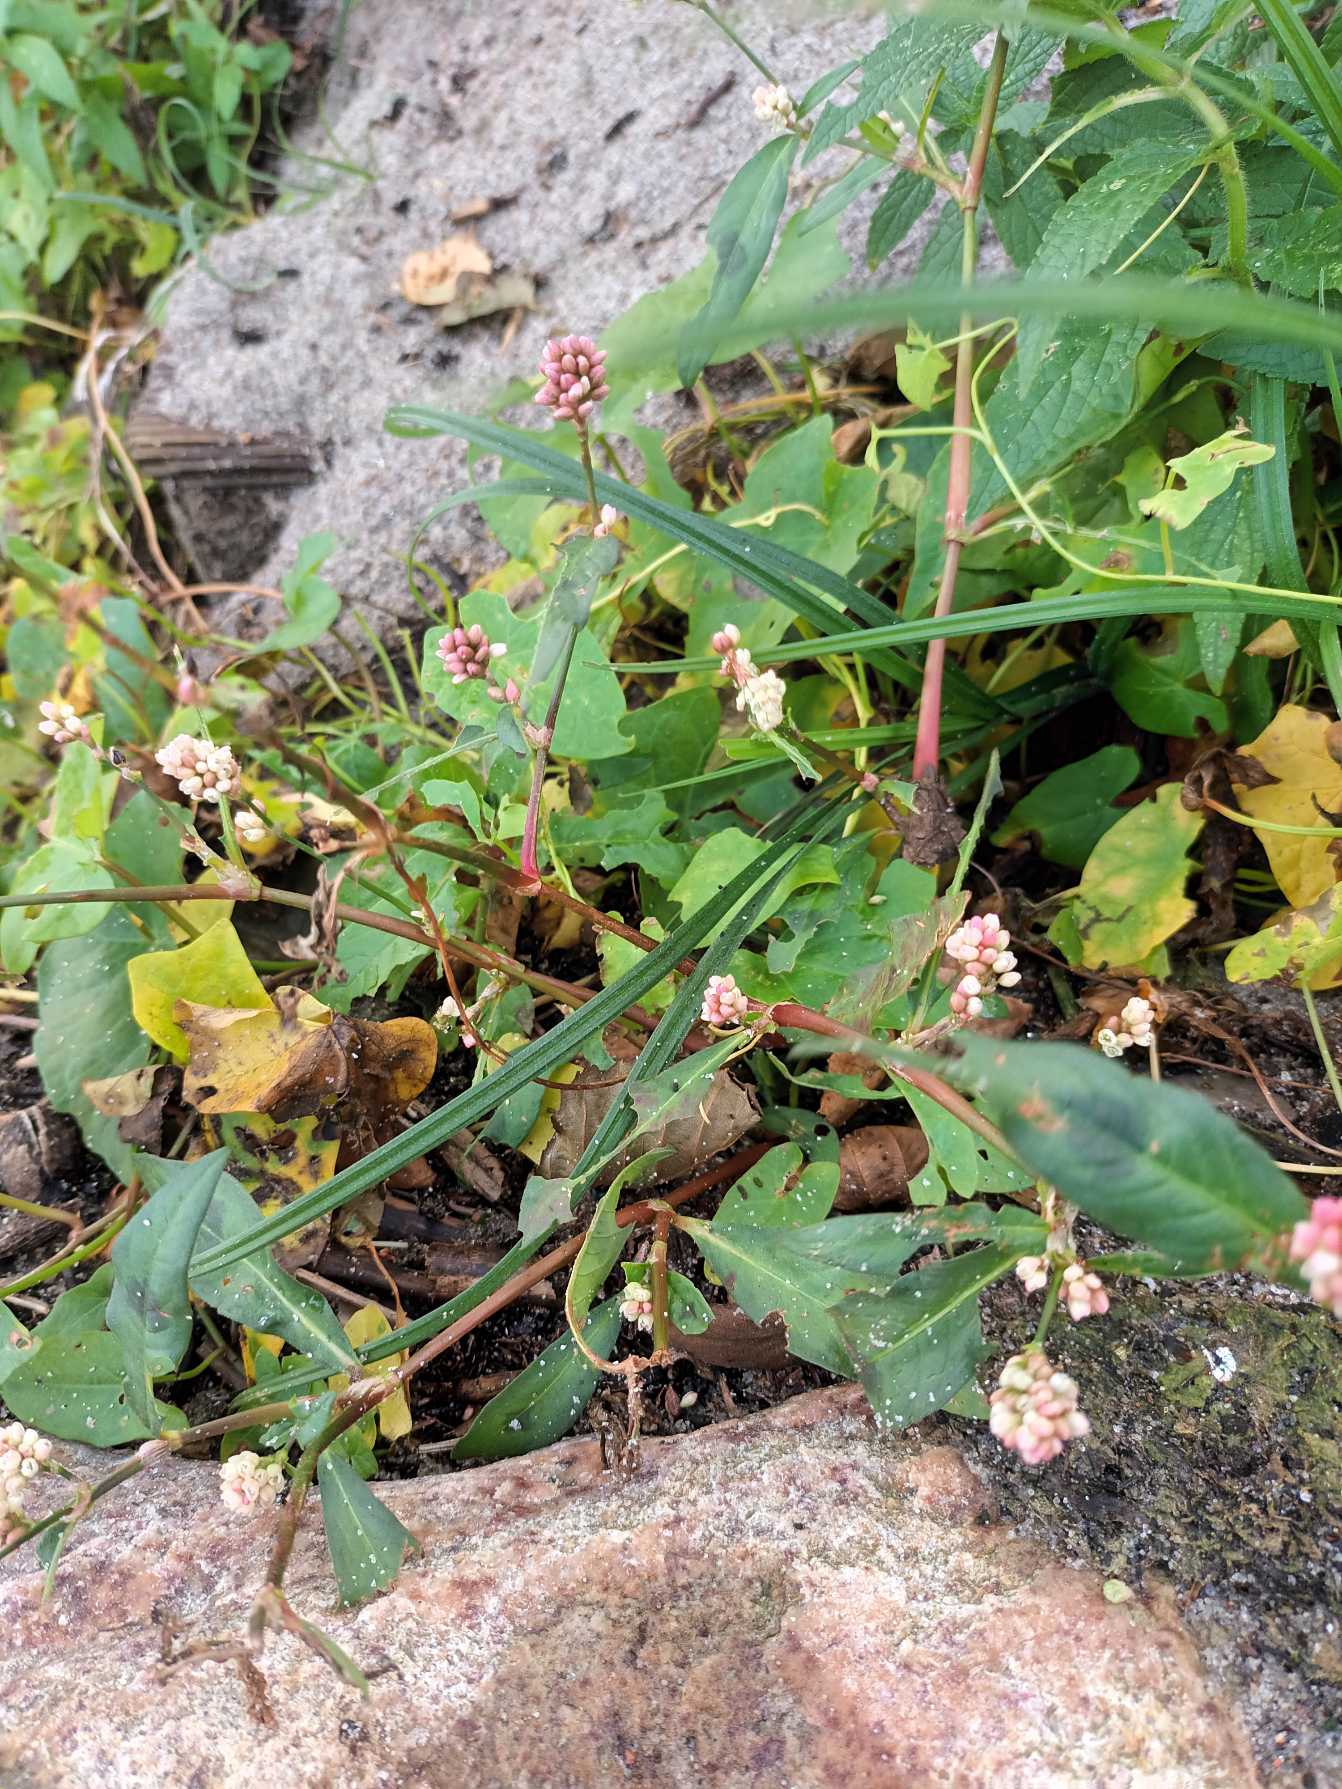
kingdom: Plantae
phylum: Tracheophyta
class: Magnoliopsida
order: Caryophyllales
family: Polygonaceae
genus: Persicaria
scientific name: Persicaria maculosa
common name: Fersken-pileurt
